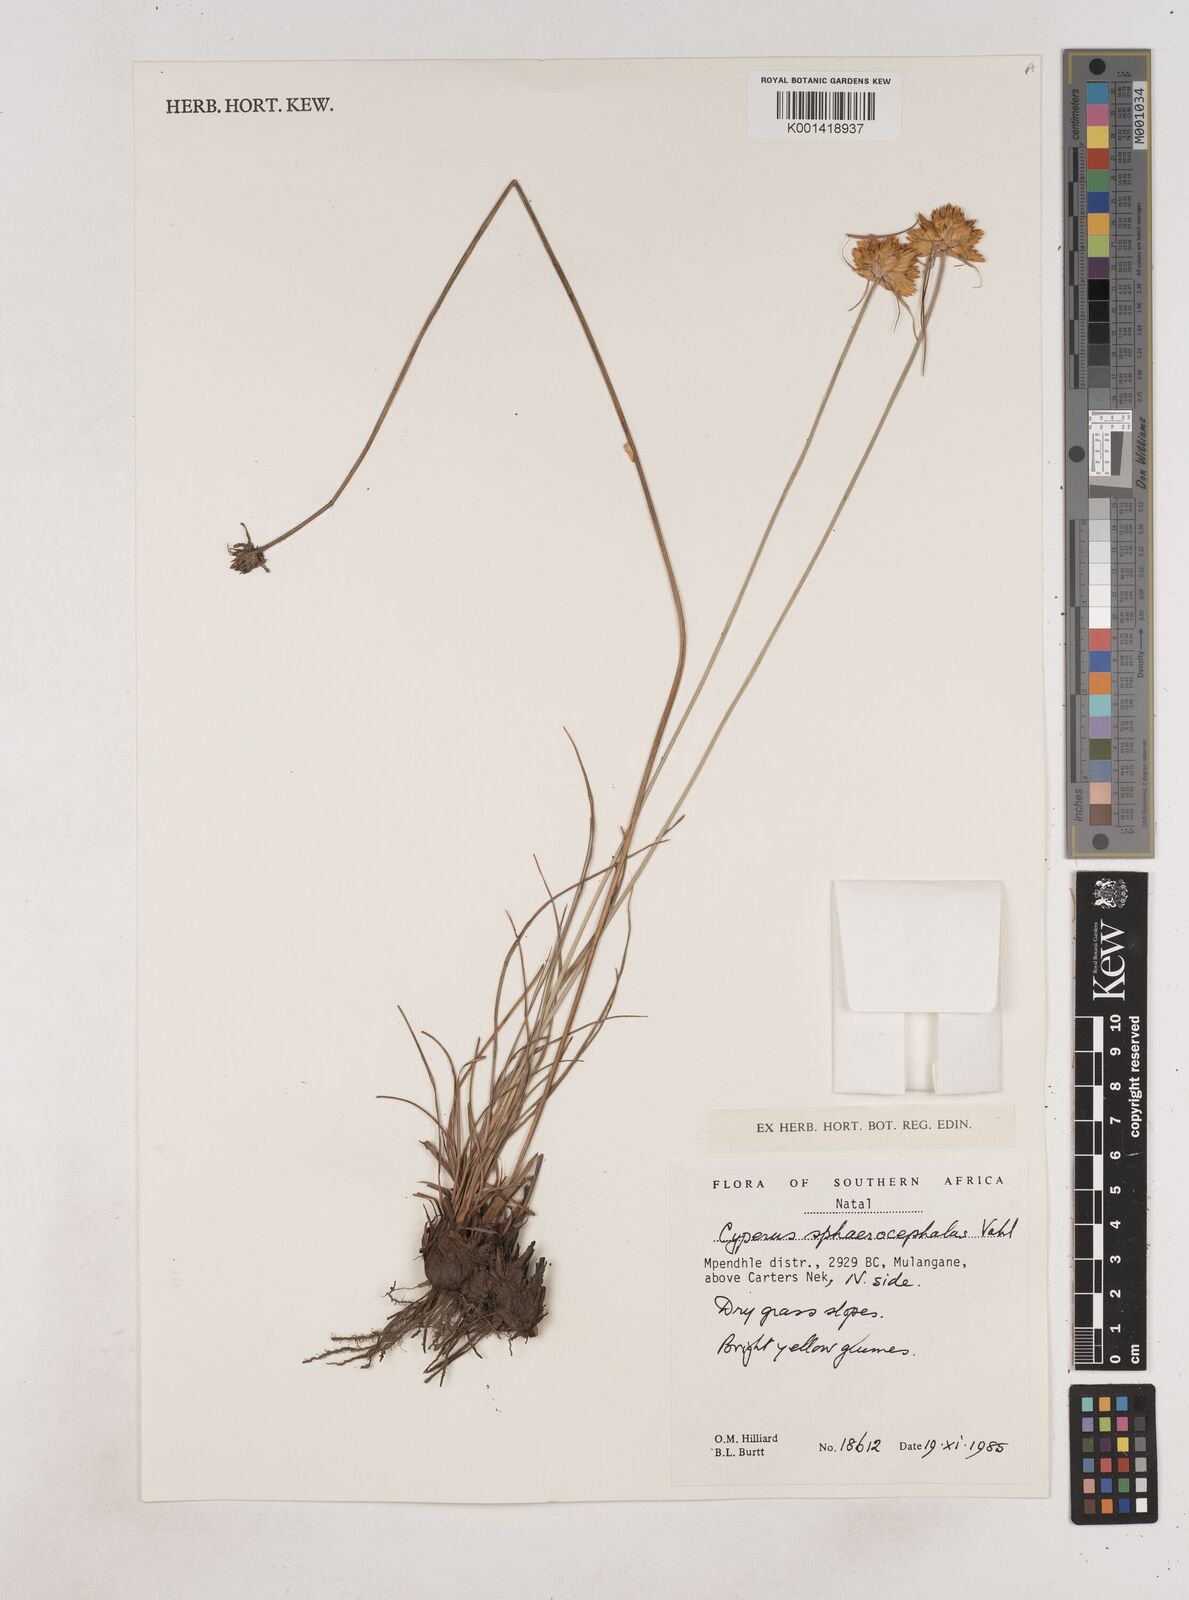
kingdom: Plantae
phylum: Tracheophyta
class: Liliopsida
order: Poales
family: Cyperaceae
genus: Cyperus
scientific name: Cyperus sphaerocephalus
